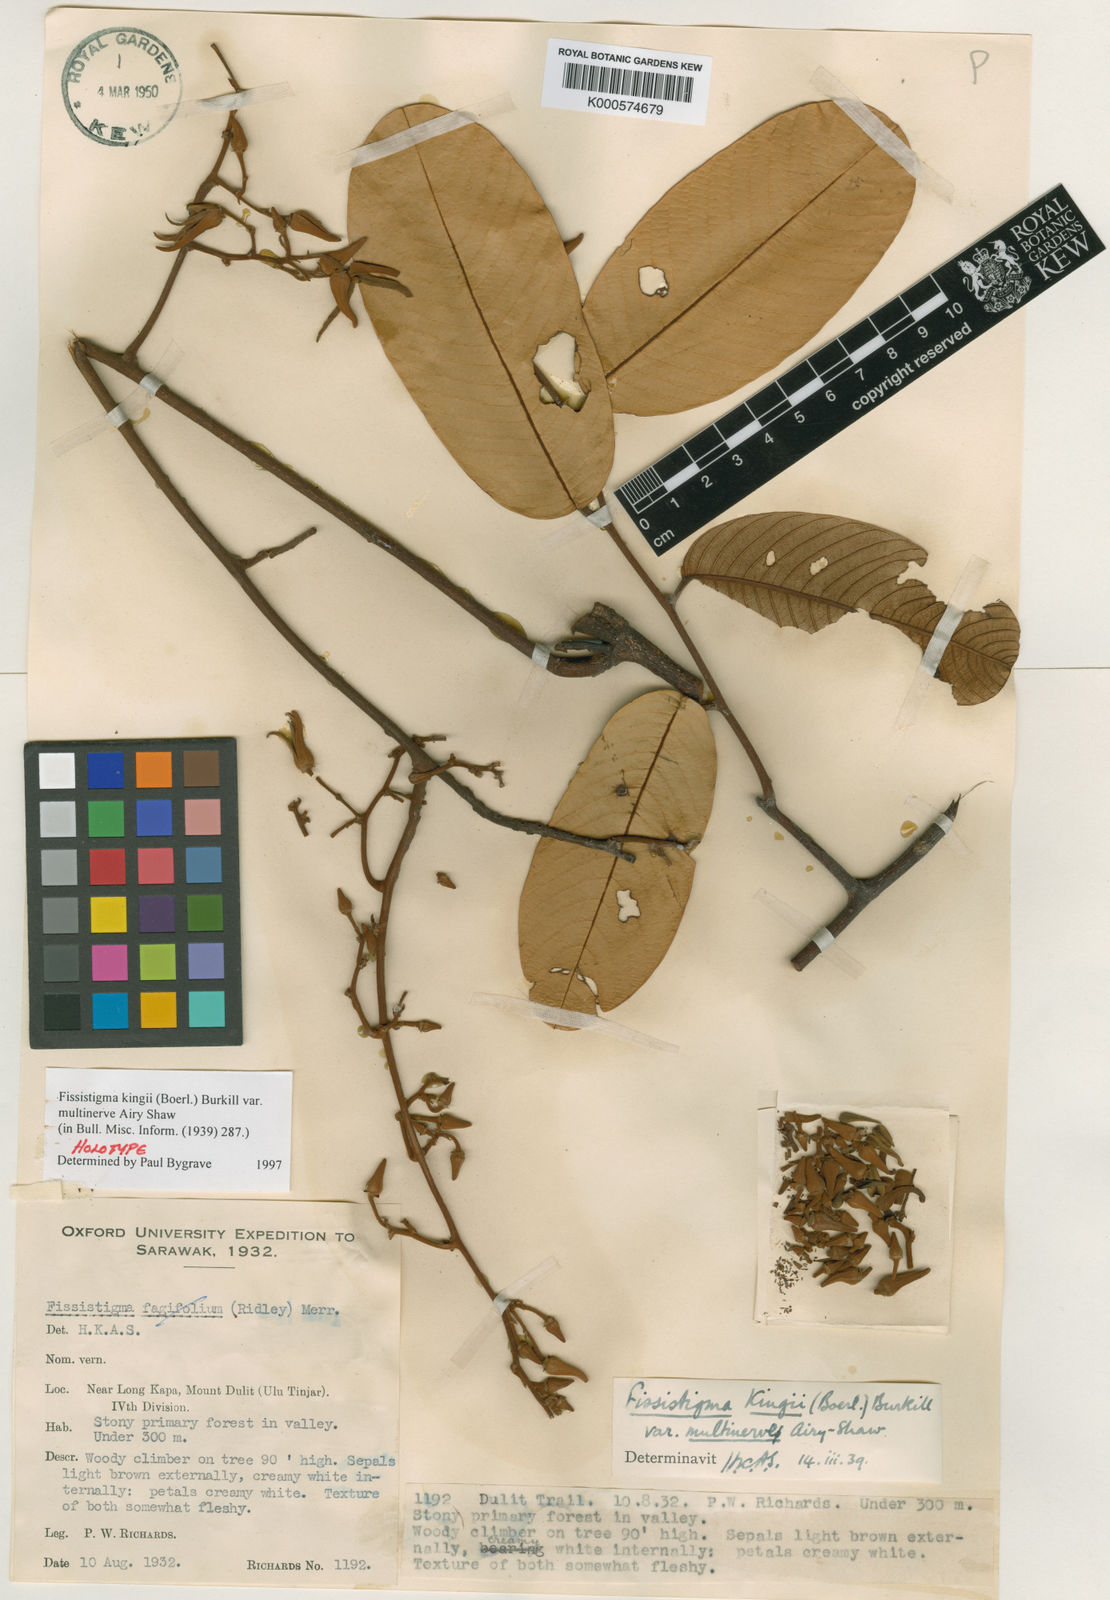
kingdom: Plantae
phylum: Tracheophyta
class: Magnoliopsida
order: Magnoliales
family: Annonaceae
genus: Fissistigma
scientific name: Fissistigma kingii
